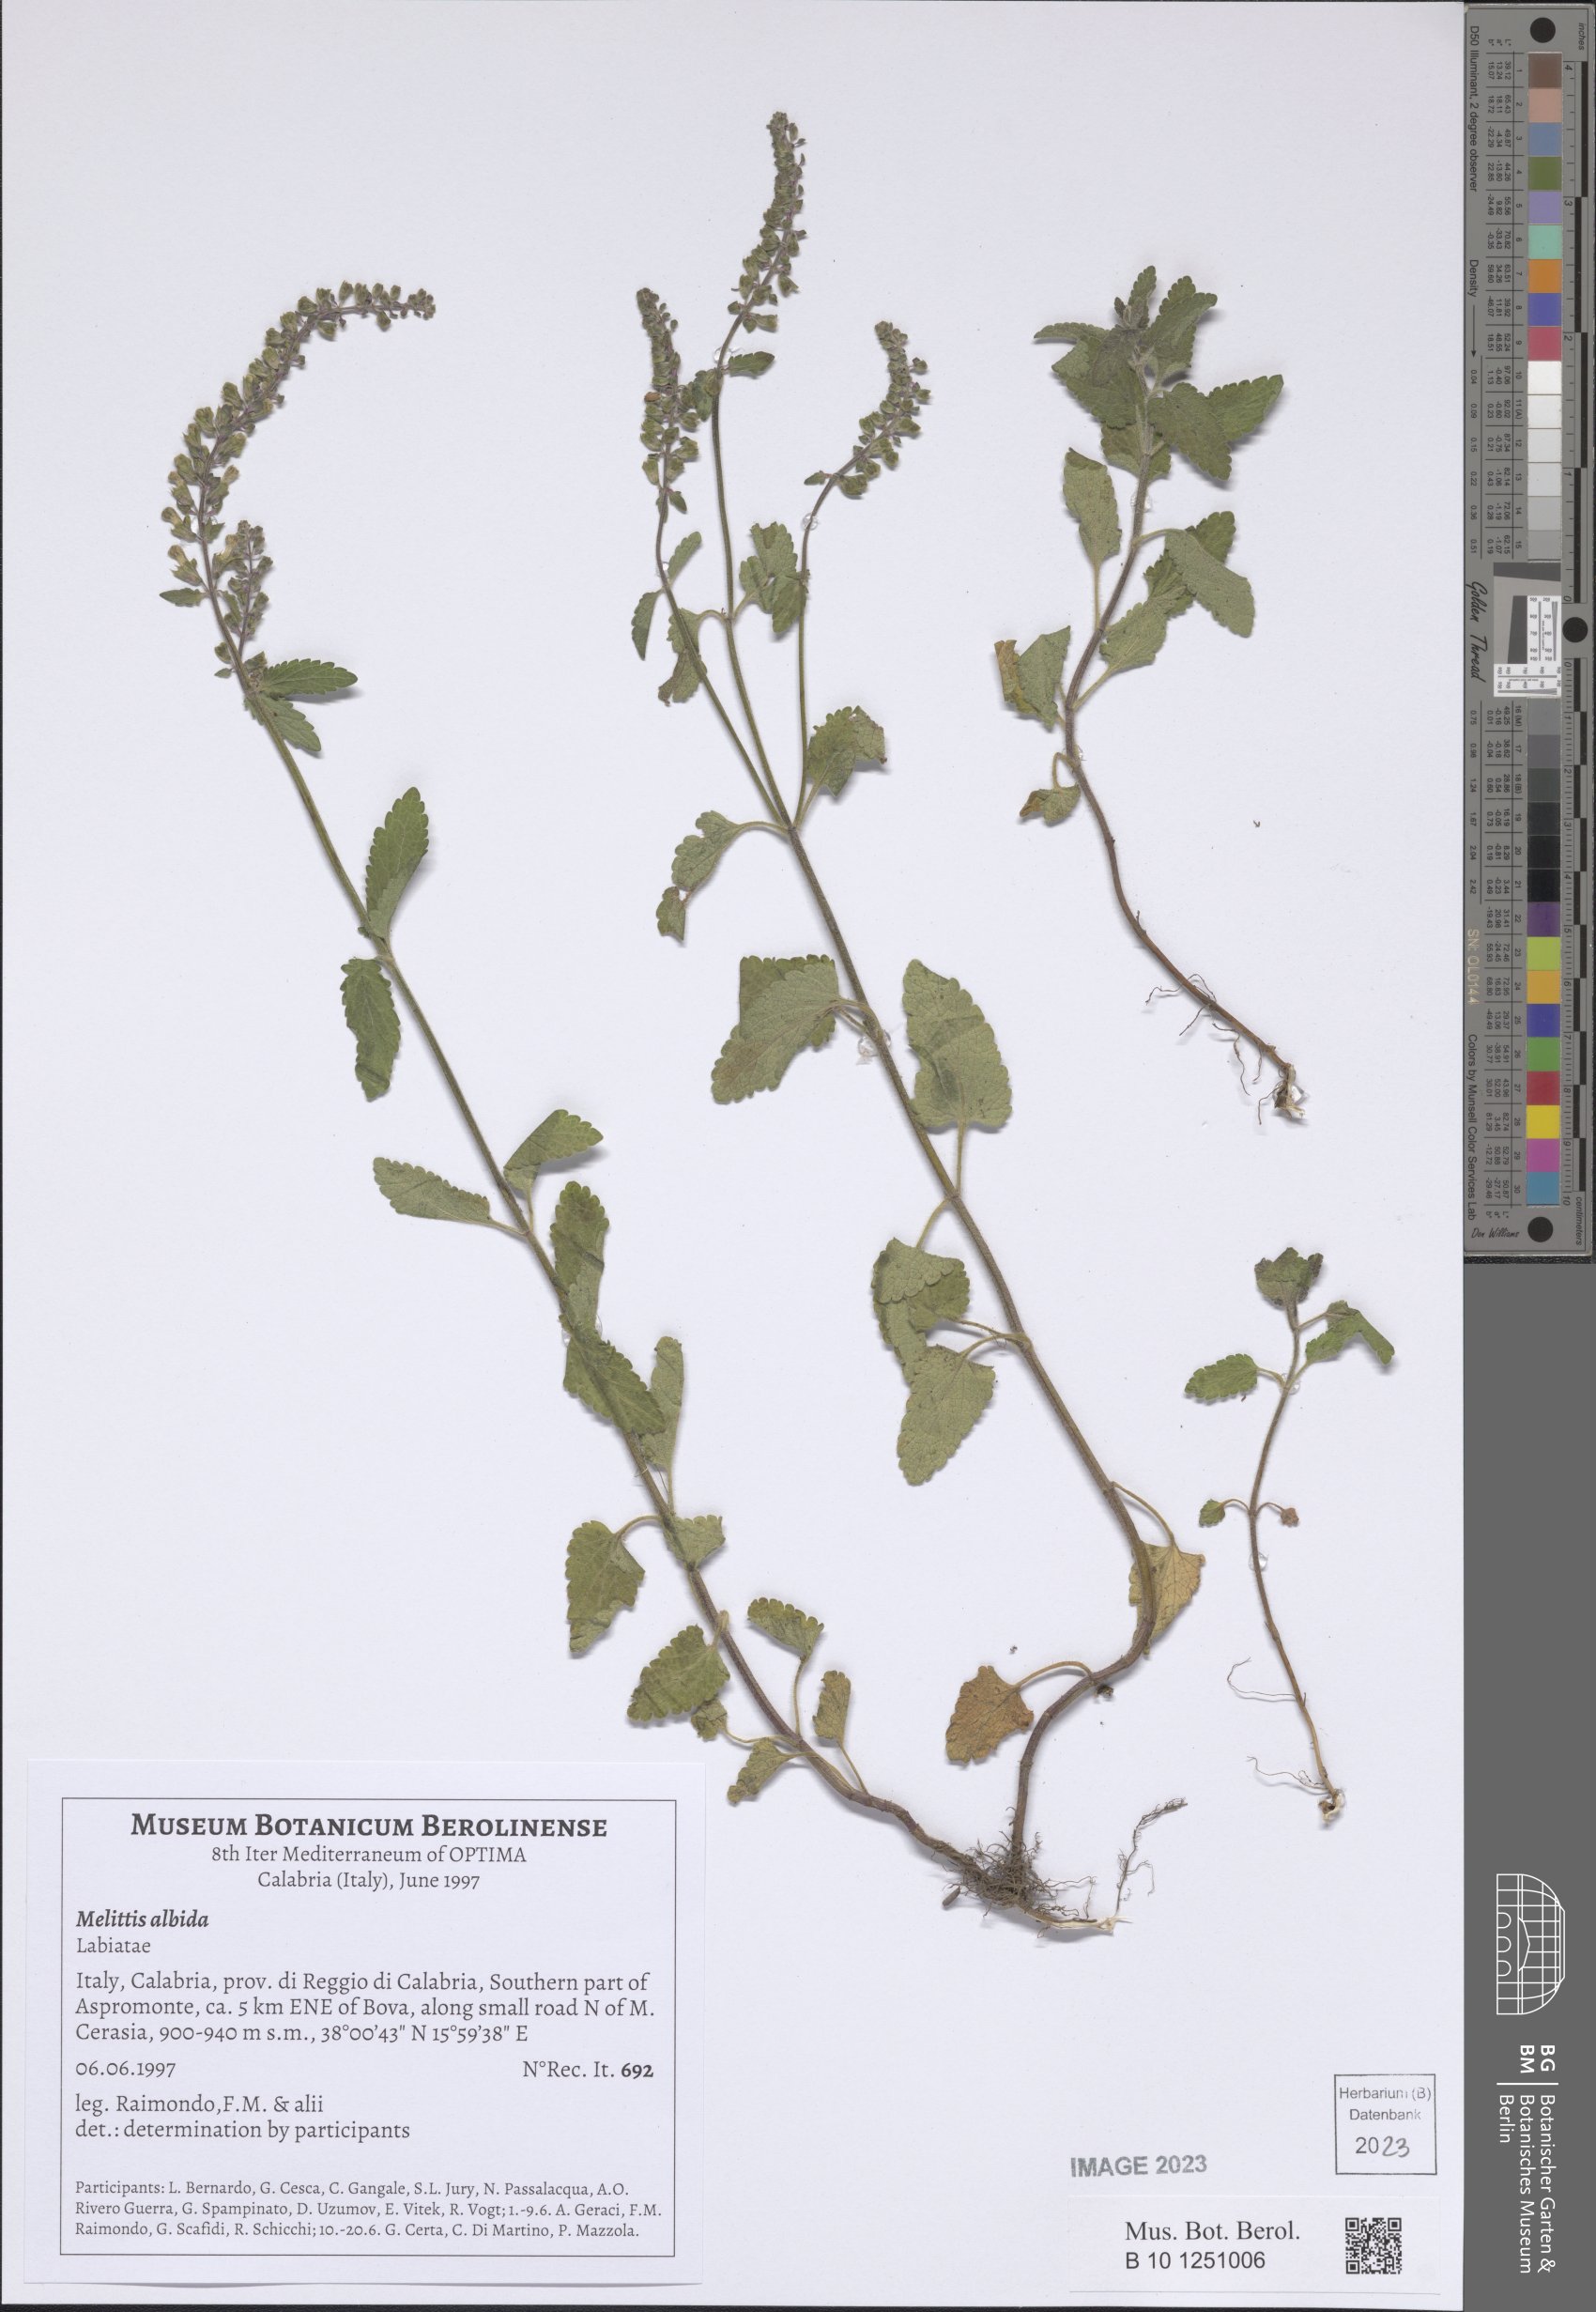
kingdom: Plantae
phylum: Tracheophyta
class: Magnoliopsida
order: Lamiales
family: Lamiaceae
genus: Melittis
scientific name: Melittis melissophyllum
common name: Bastard balm
